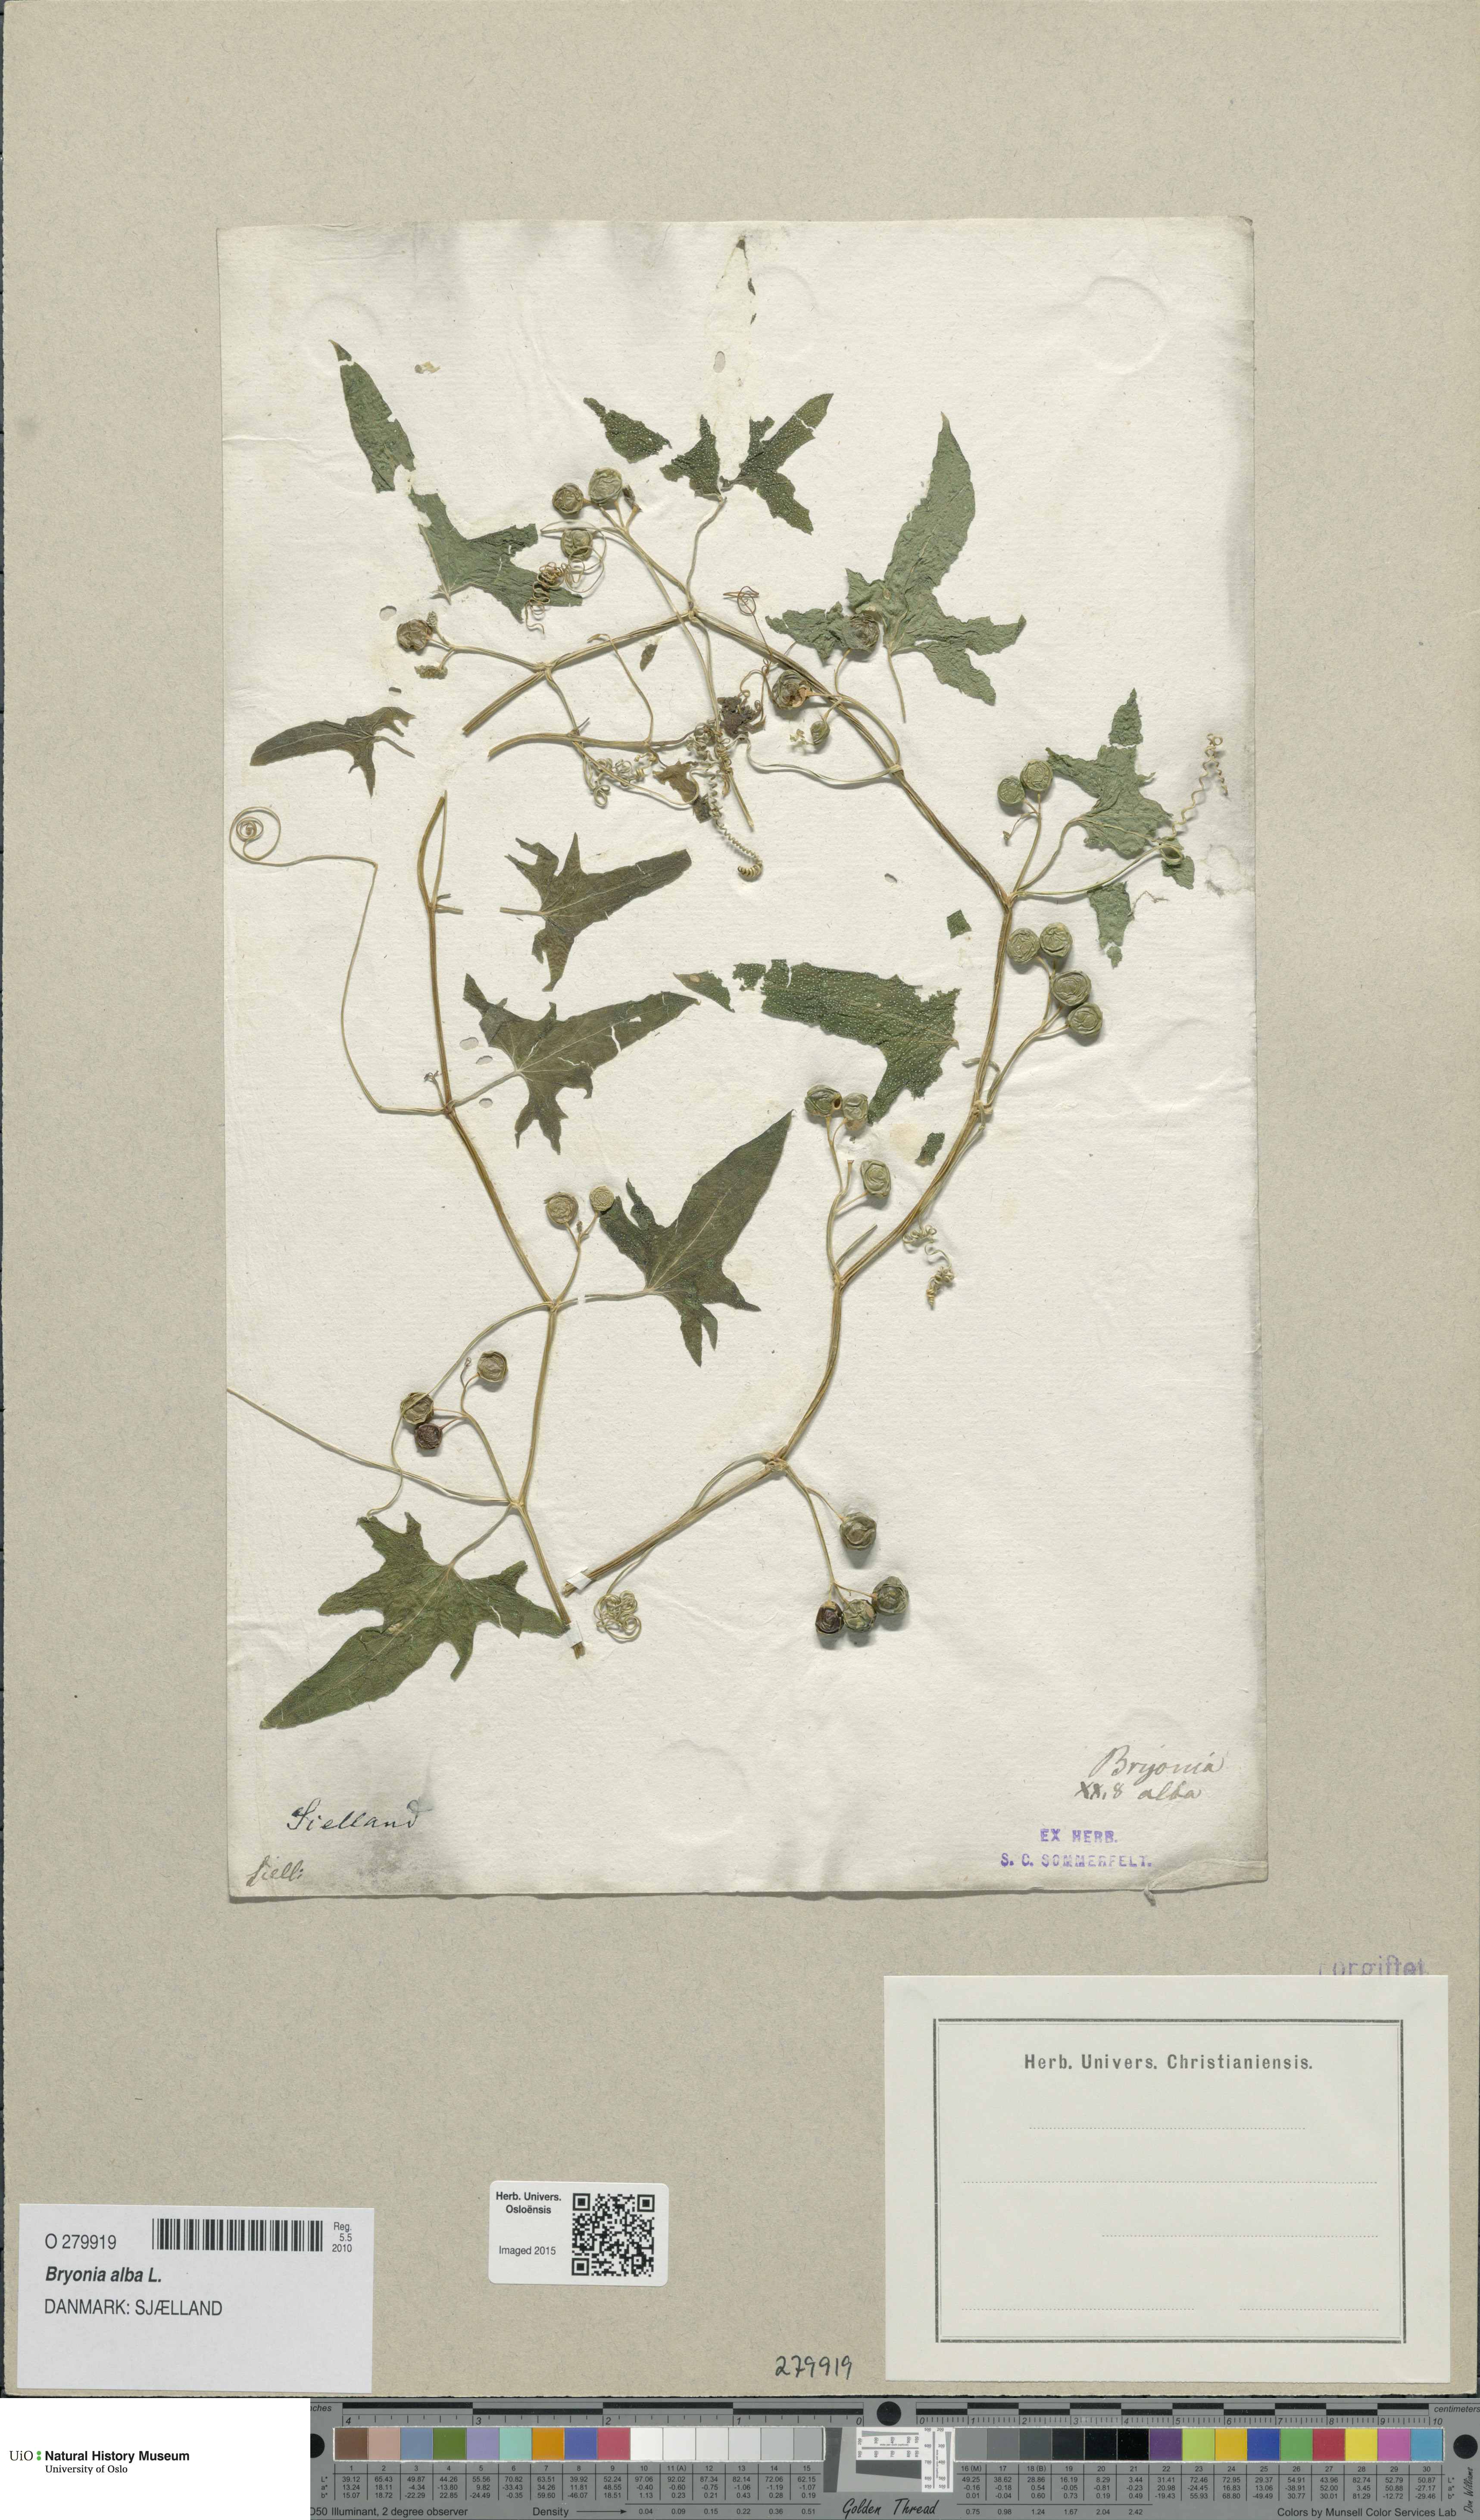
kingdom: Plantae
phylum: Tracheophyta
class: Magnoliopsida
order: Cucurbitales
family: Cucurbitaceae
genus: Bryonia
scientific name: Bryonia alba
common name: White bryony
